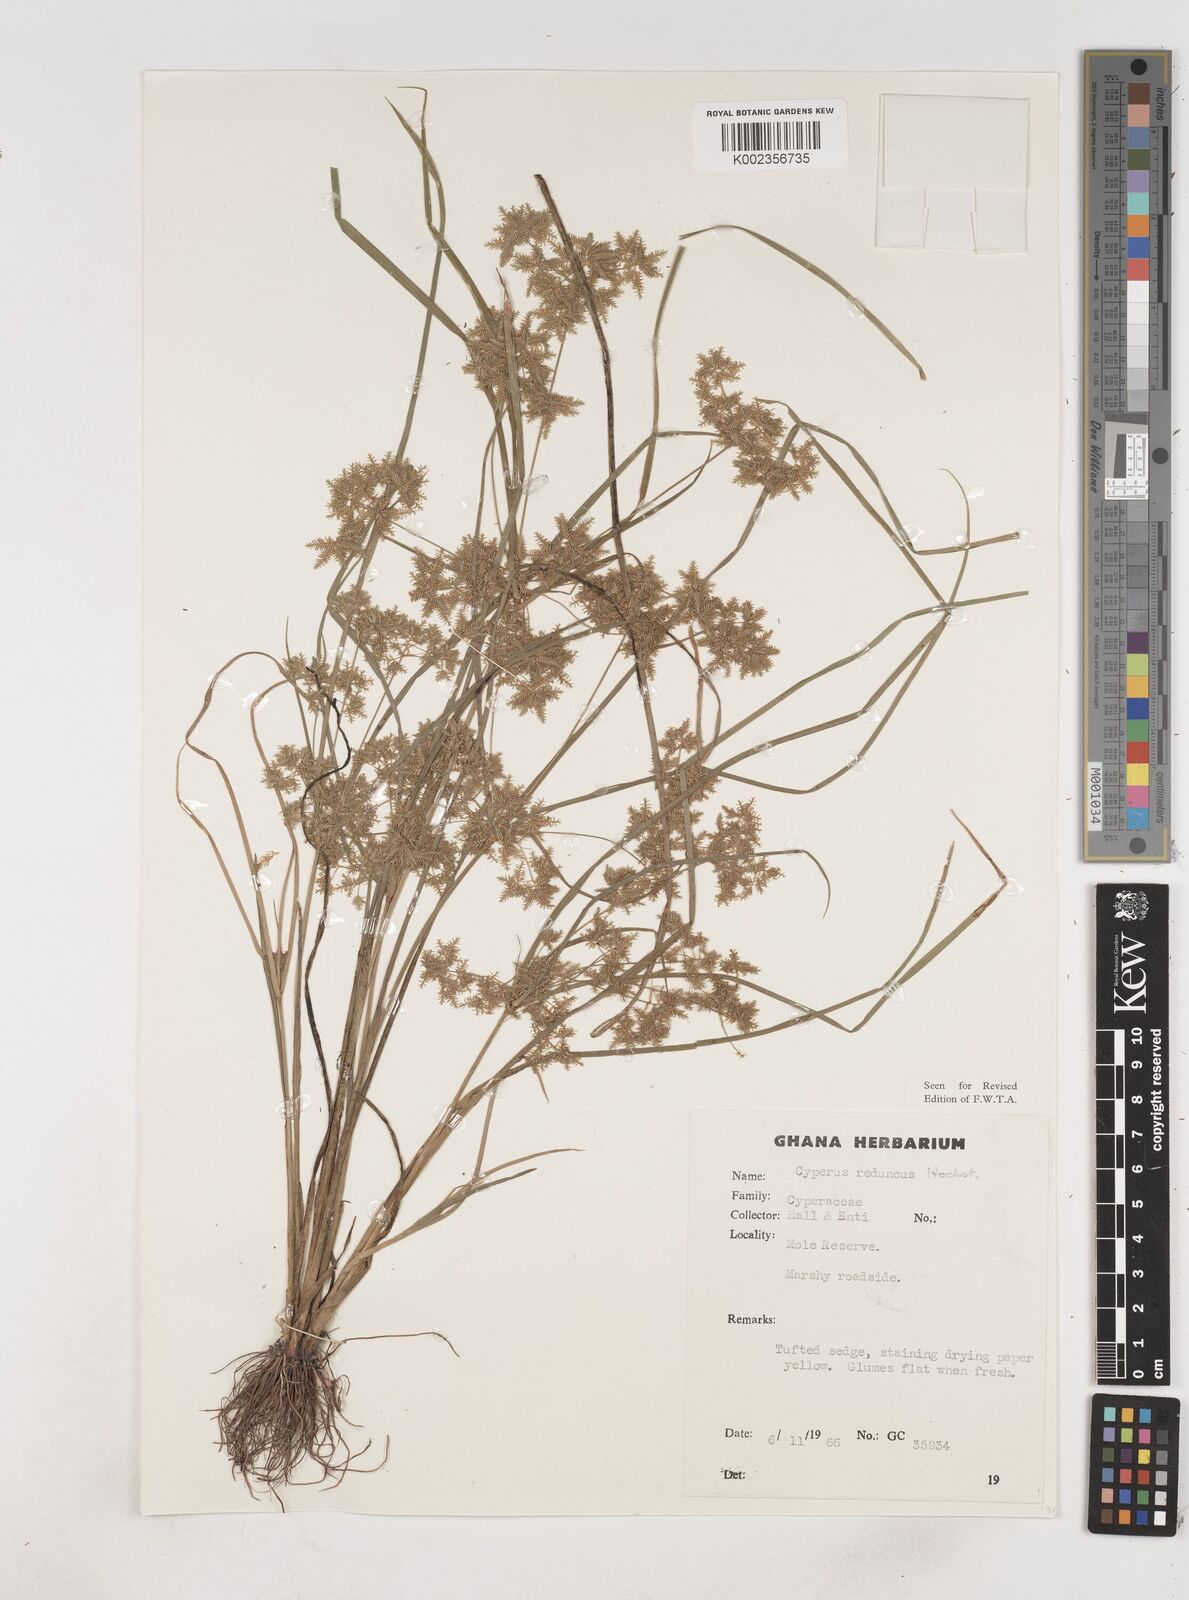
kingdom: Plantae
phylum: Tracheophyta
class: Liliopsida
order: Poales
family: Cyperaceae
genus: Cyperus
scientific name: Cyperus reduncus
